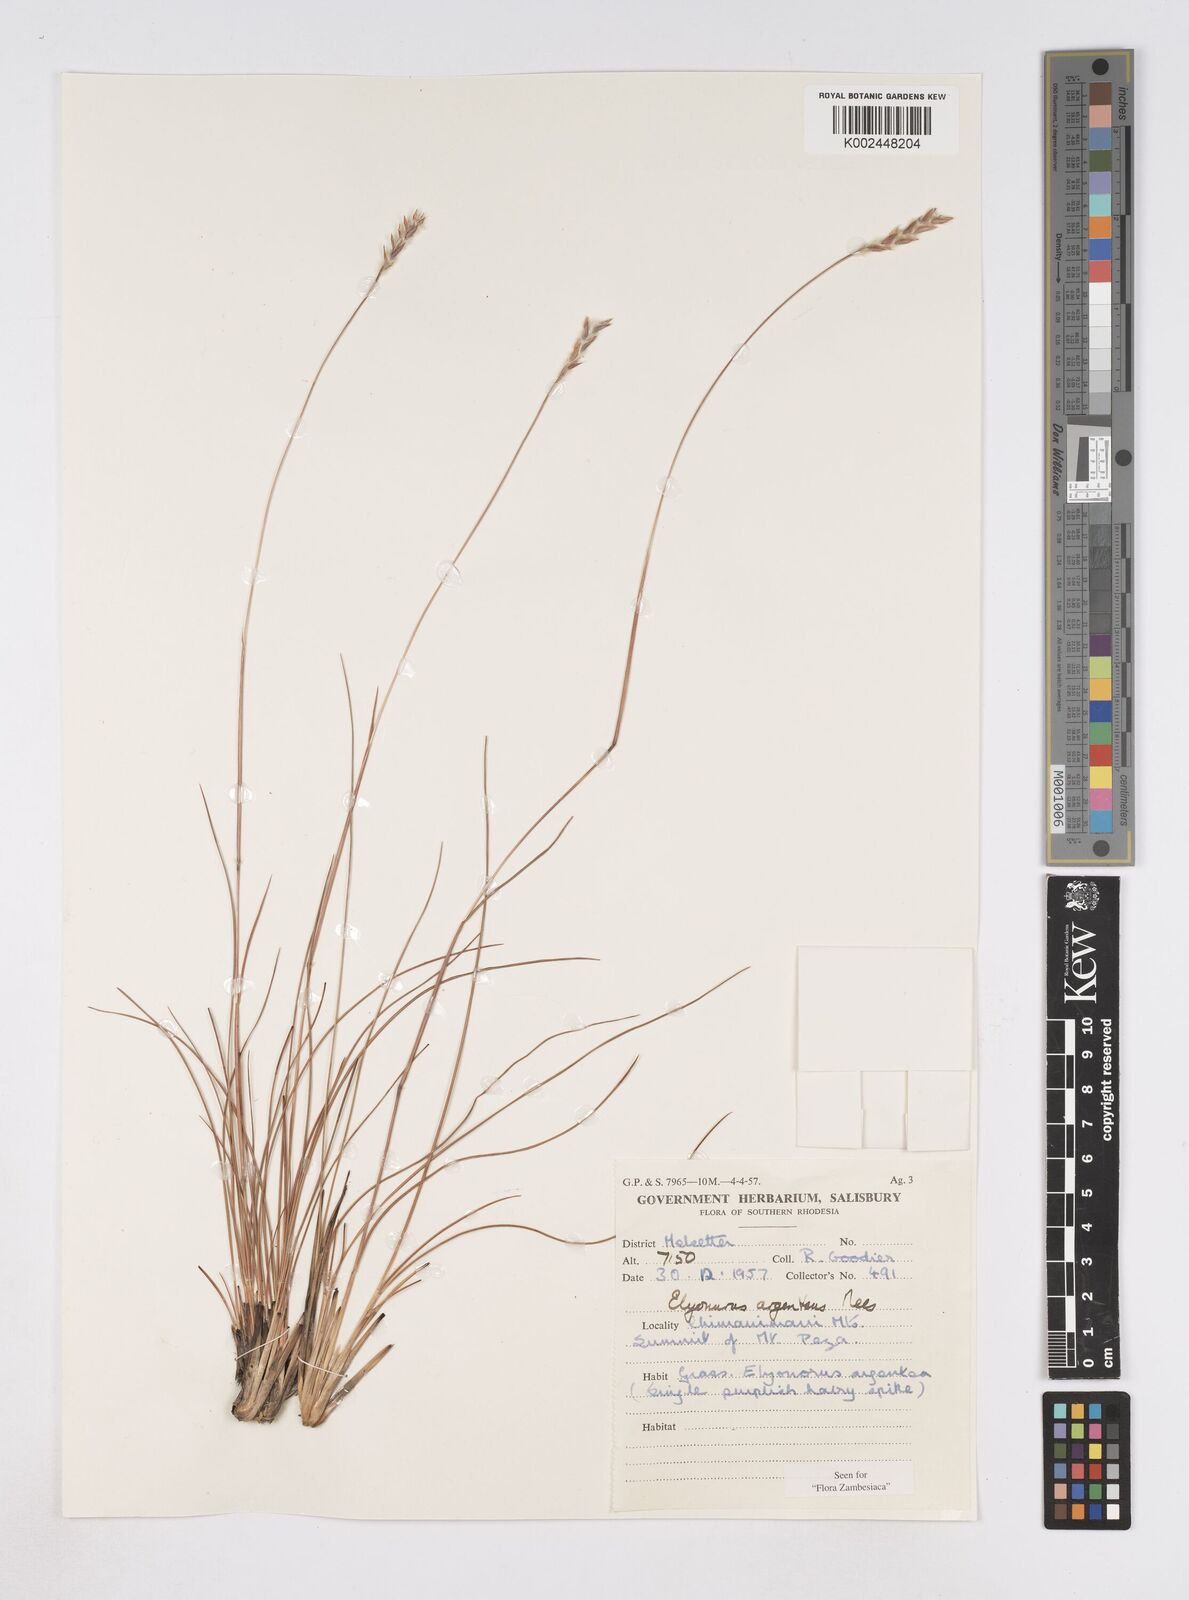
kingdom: Plantae
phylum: Tracheophyta
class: Liliopsida
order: Poales
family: Poaceae
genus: Elionurus
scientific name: Elionurus muticus
